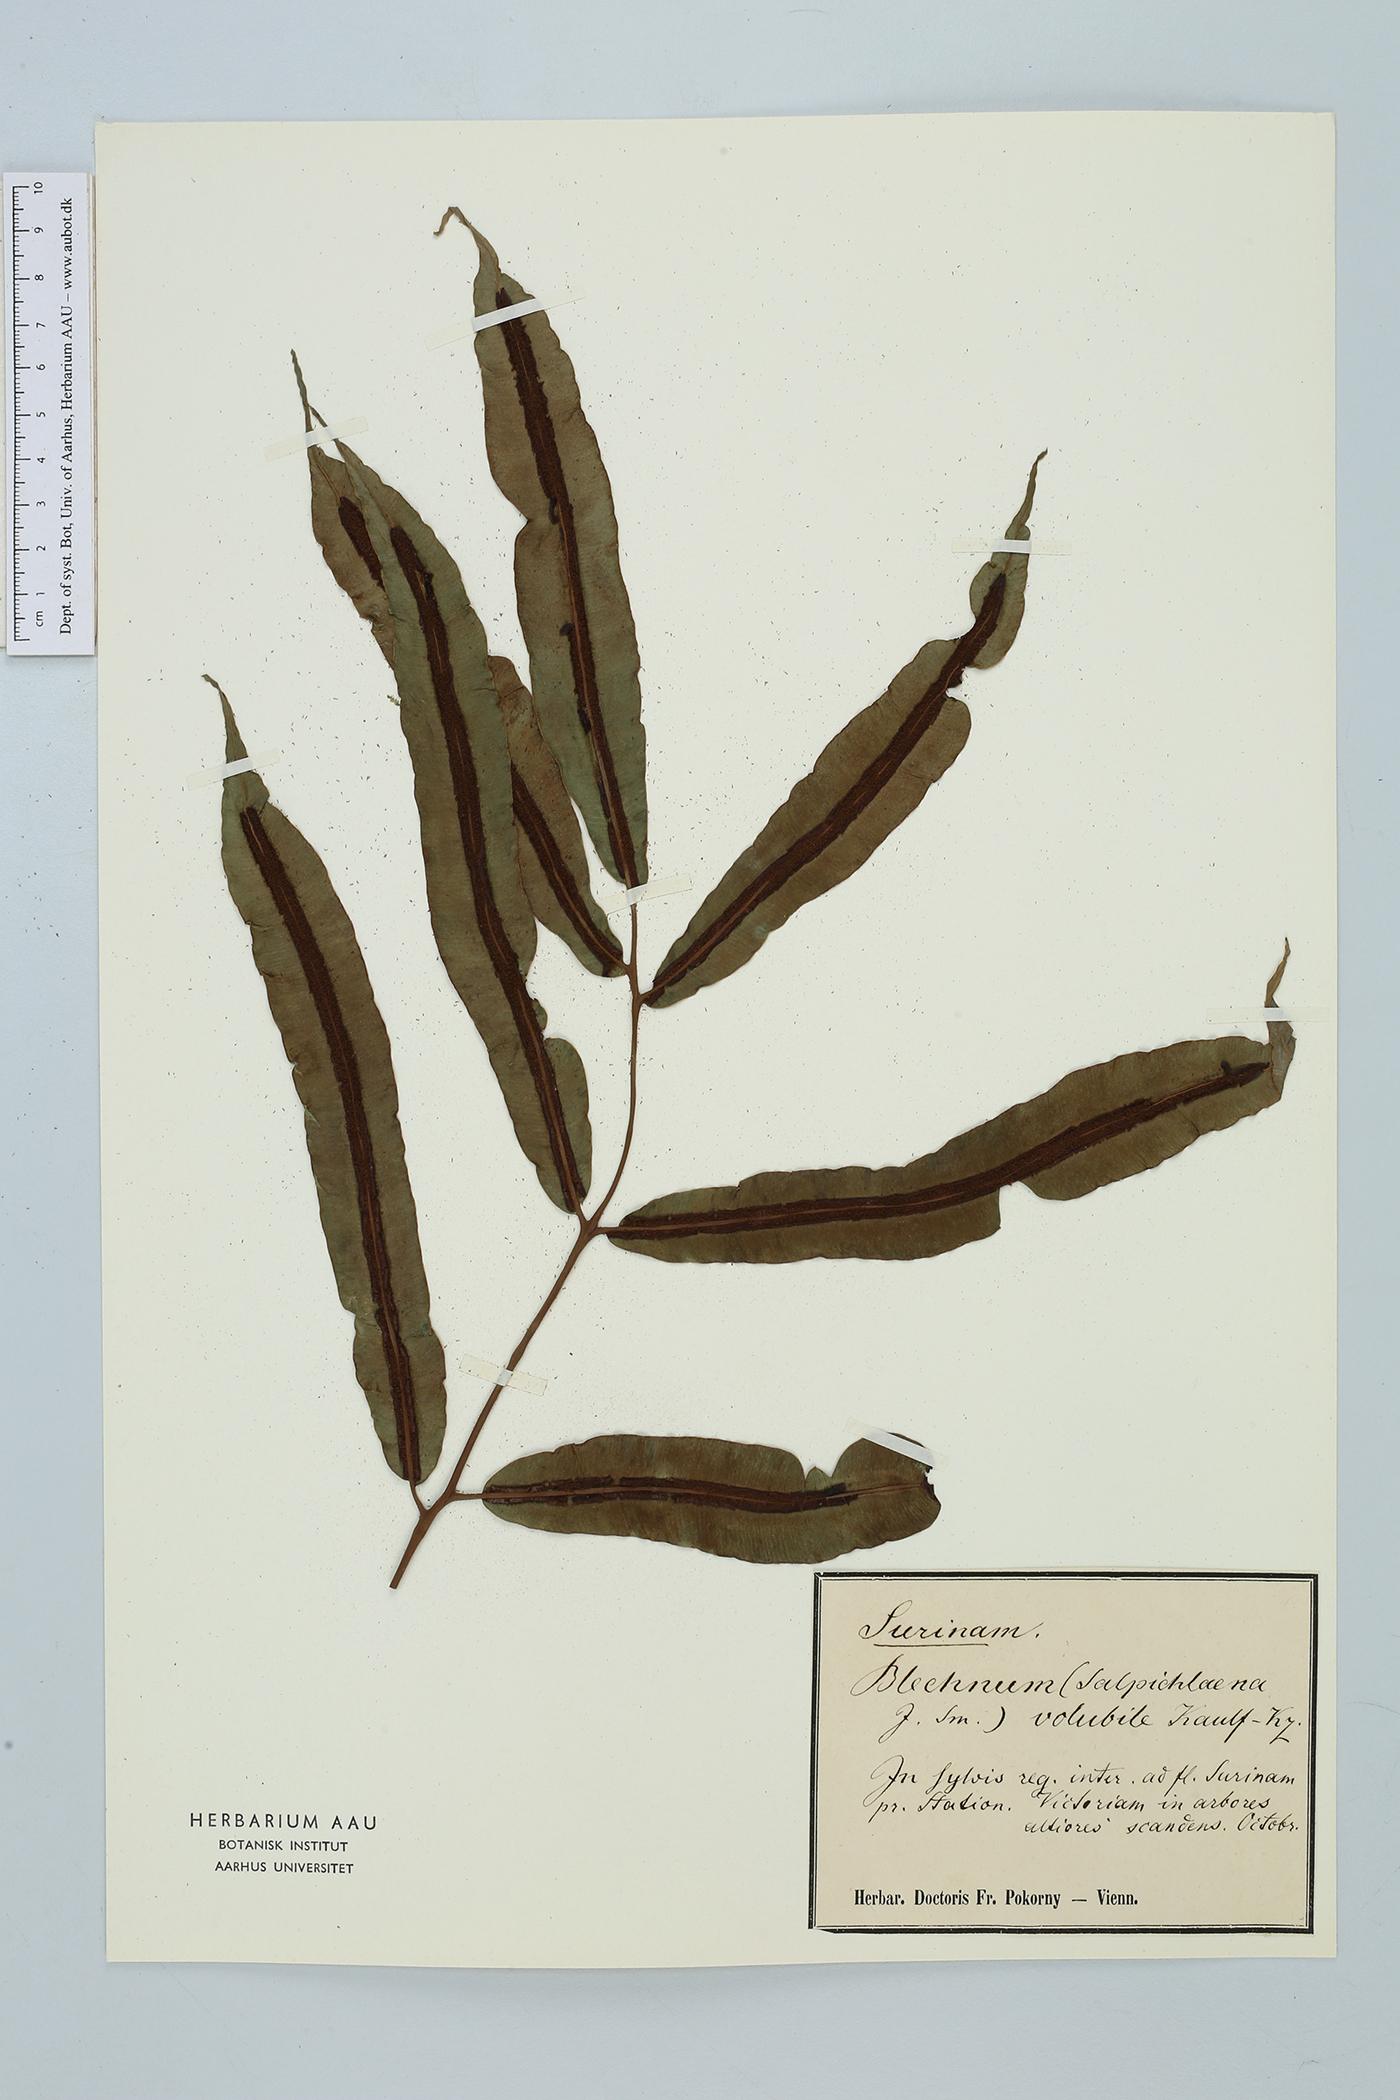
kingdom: Plantae
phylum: Tracheophyta
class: Polypodiopsida
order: Polypodiales
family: Blechnaceae
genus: Salpichlaena
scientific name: Salpichlaena volubilis
